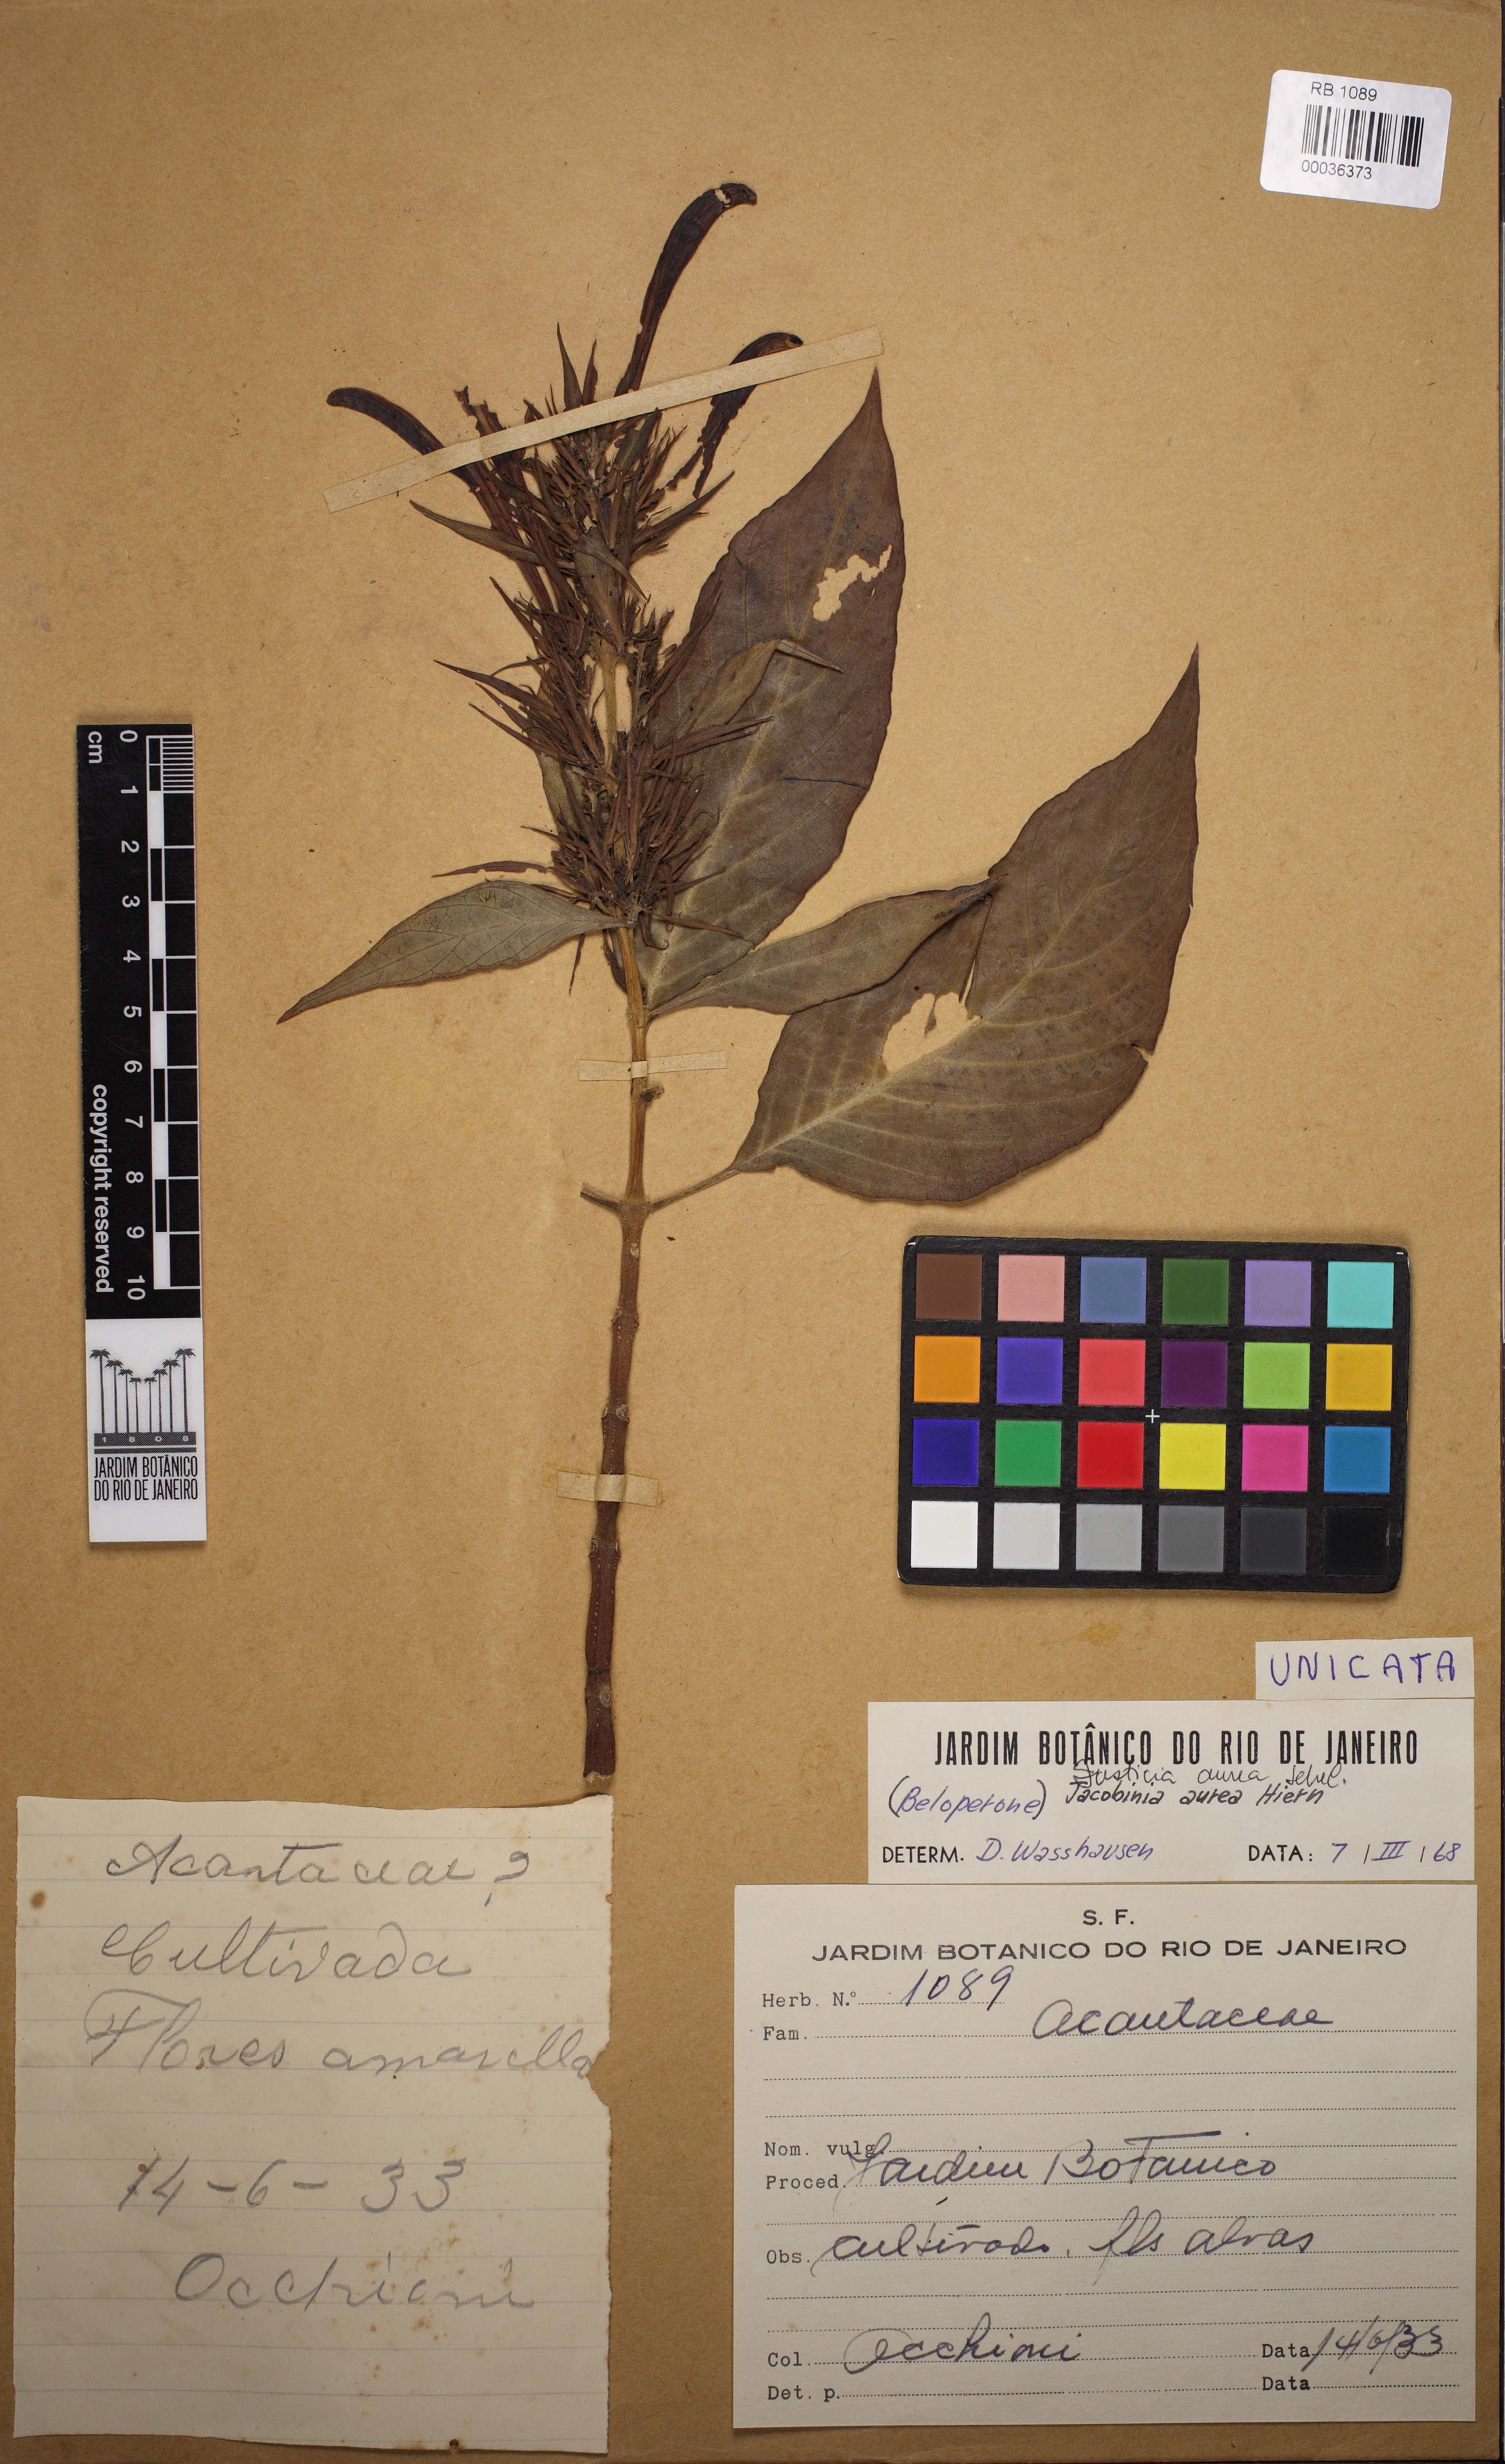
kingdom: Plantae
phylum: Tracheophyta
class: Magnoliopsida
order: Lamiales
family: Acanthaceae
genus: Justicia
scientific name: Justicia aurea
